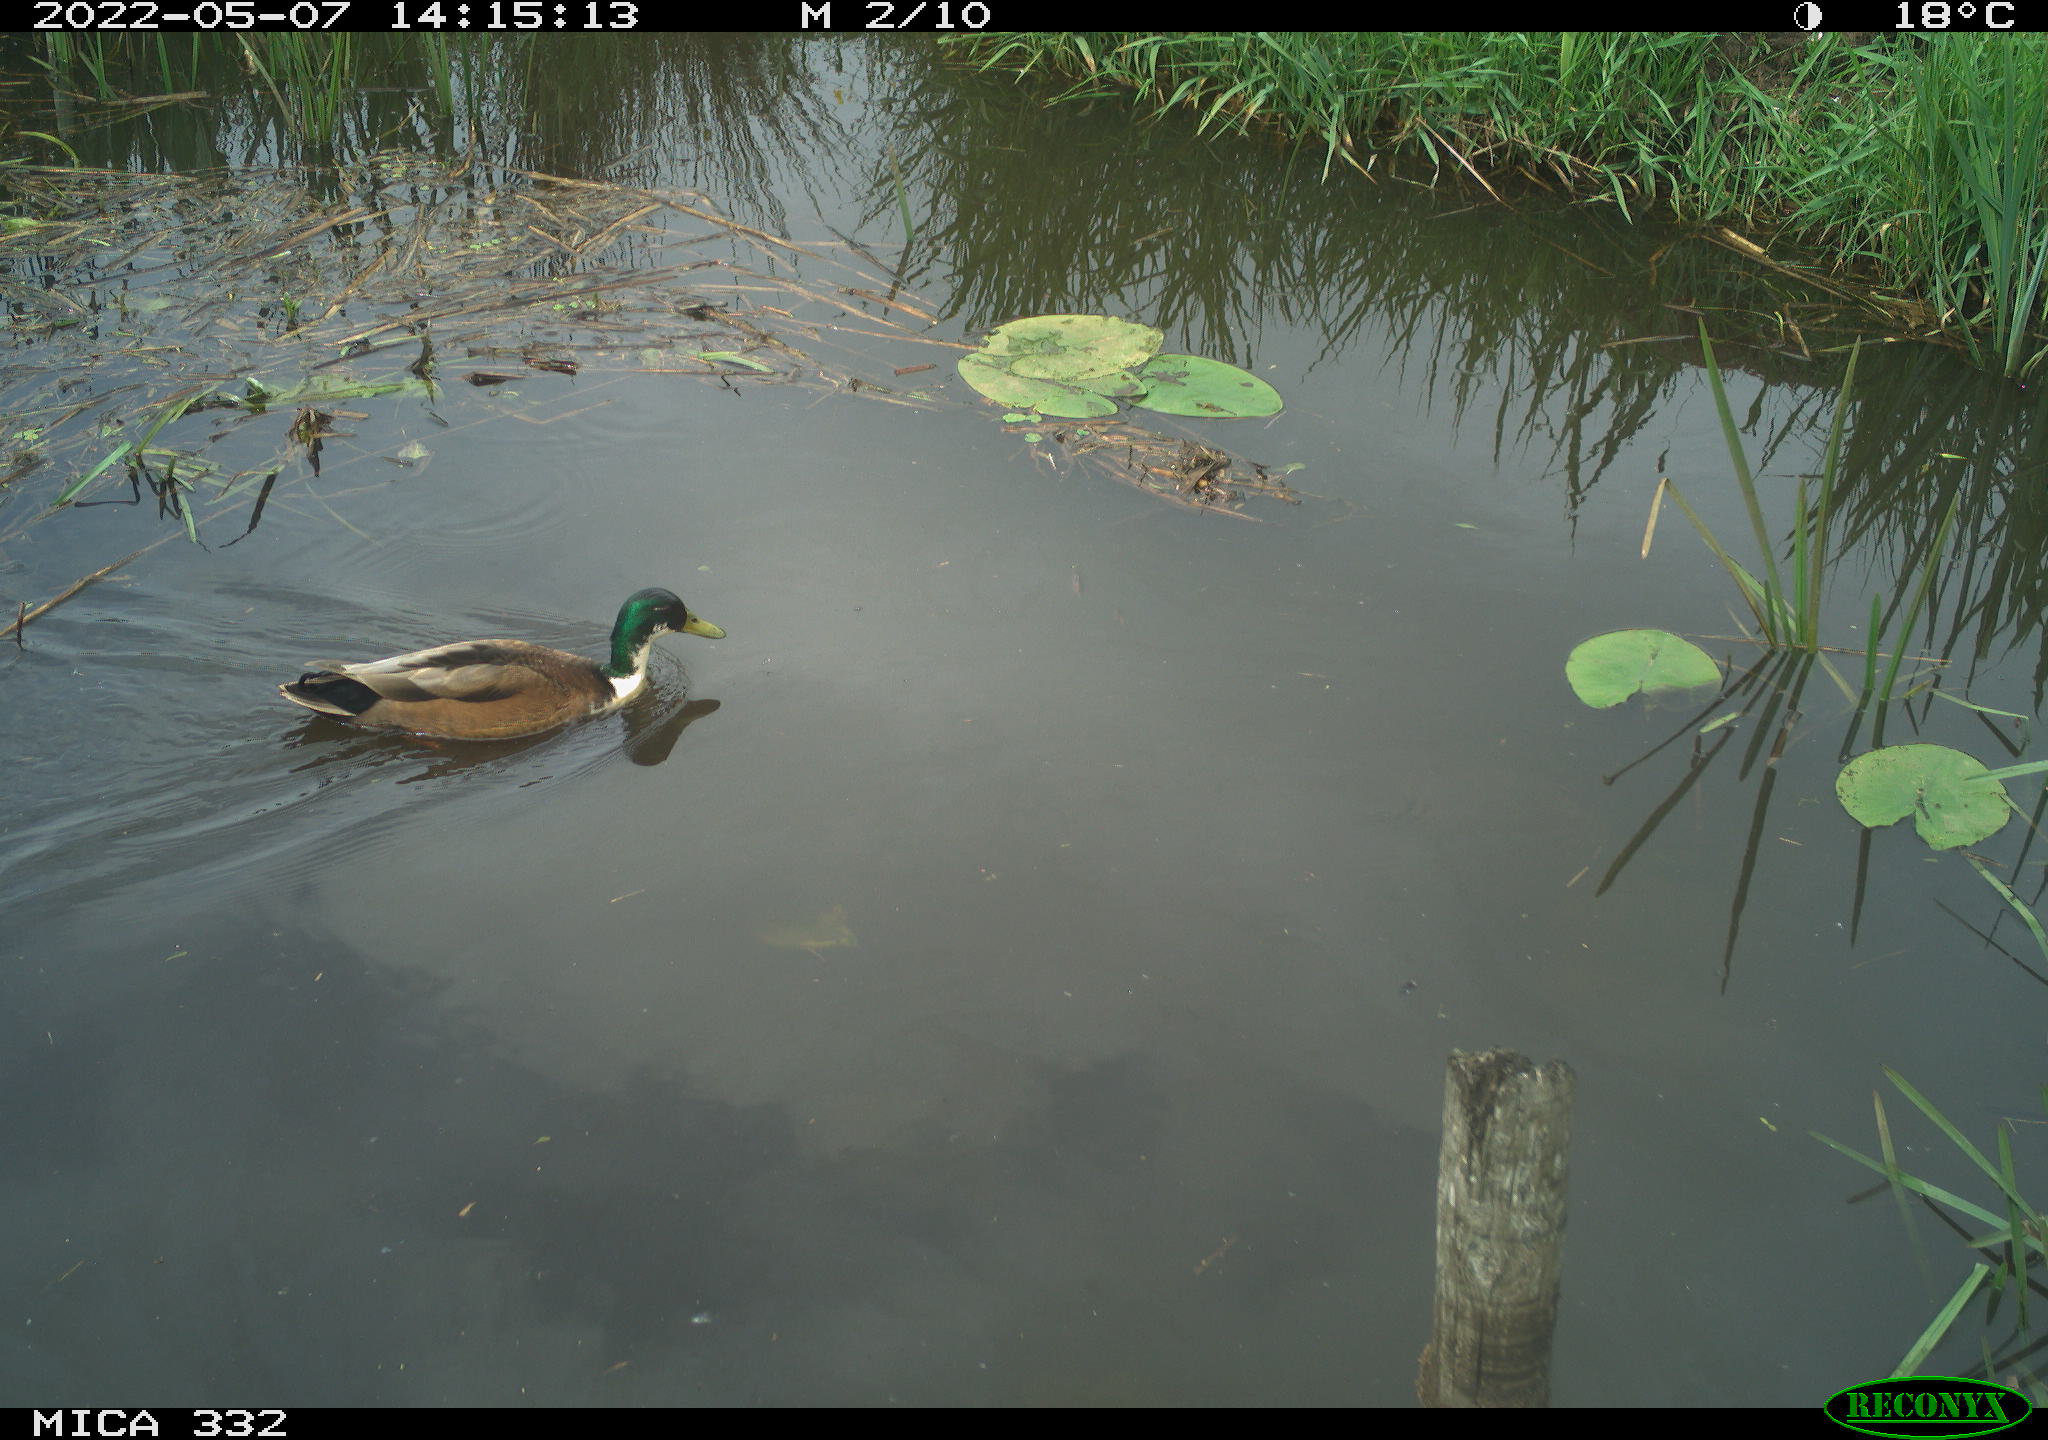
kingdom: Animalia
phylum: Chordata
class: Aves
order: Anseriformes
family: Anatidae
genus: Anas
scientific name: Anas platyrhynchos
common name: Mallard
